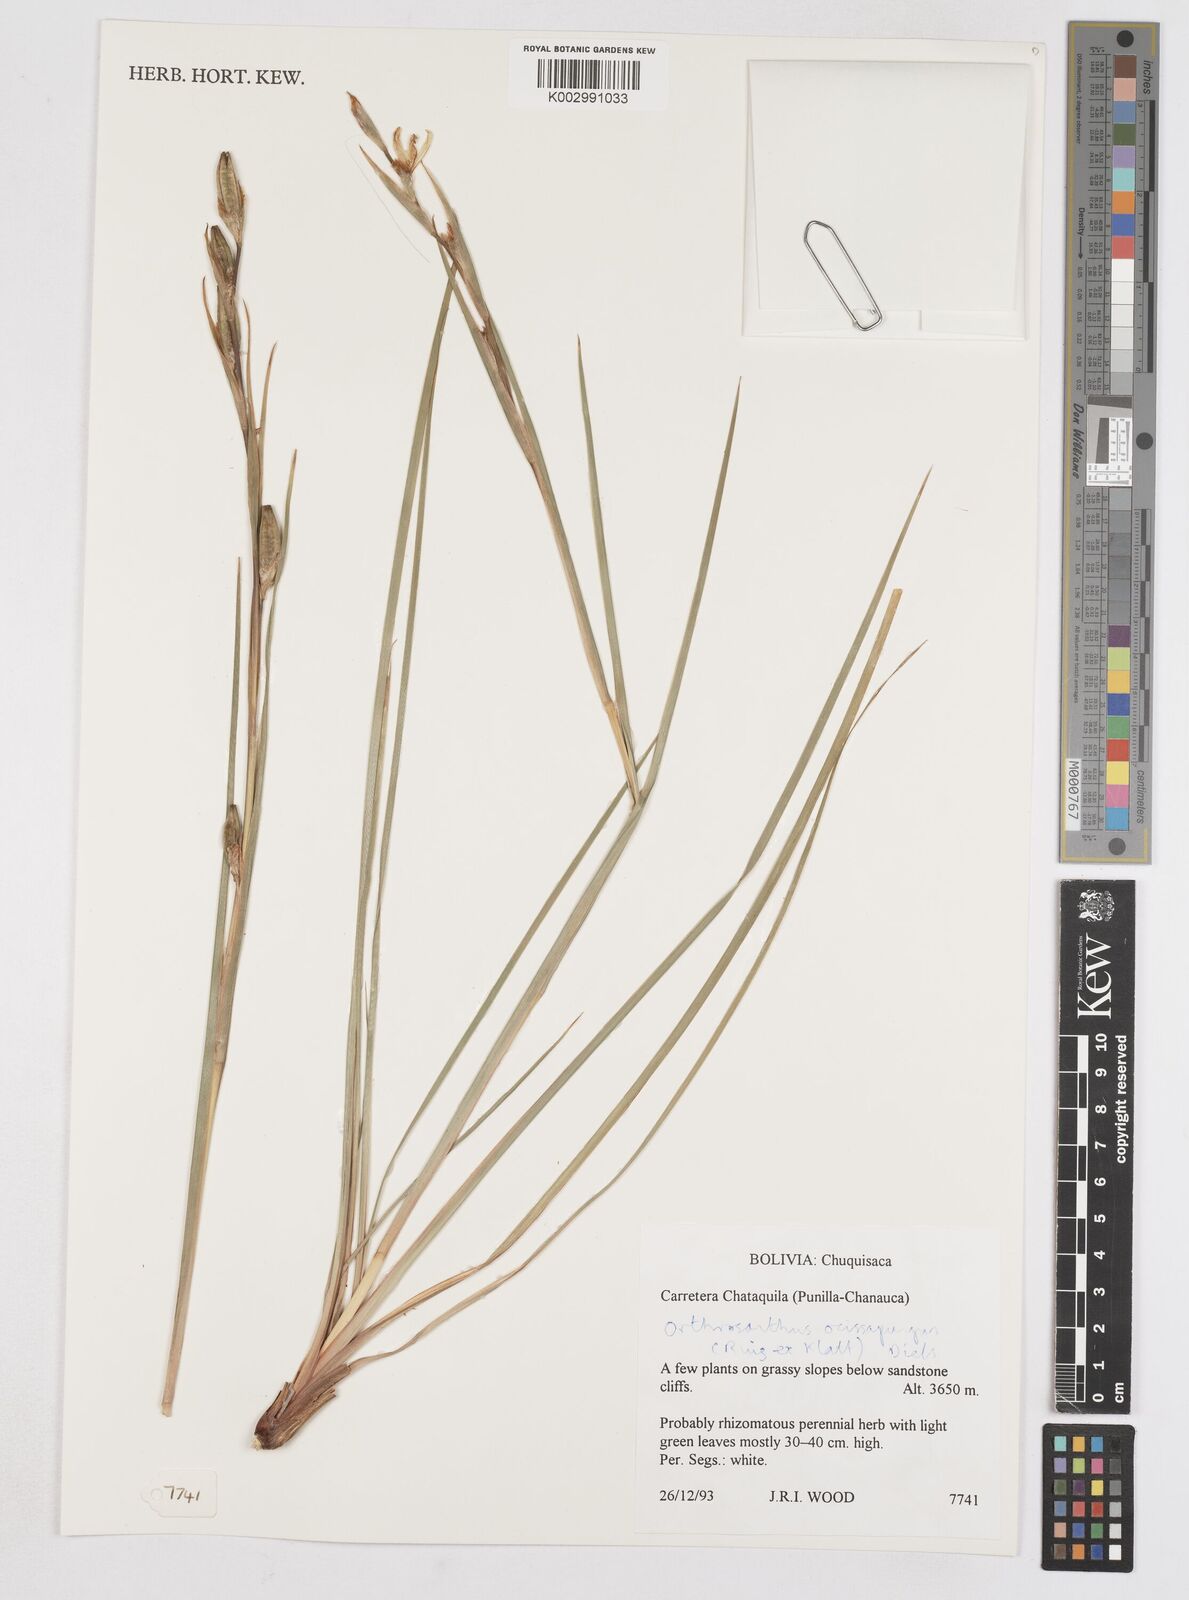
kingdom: Plantae
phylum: Tracheophyta
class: Liliopsida
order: Asparagales
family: Iridaceae
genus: Orthrosanthus
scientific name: Orthrosanthus occissapungus
